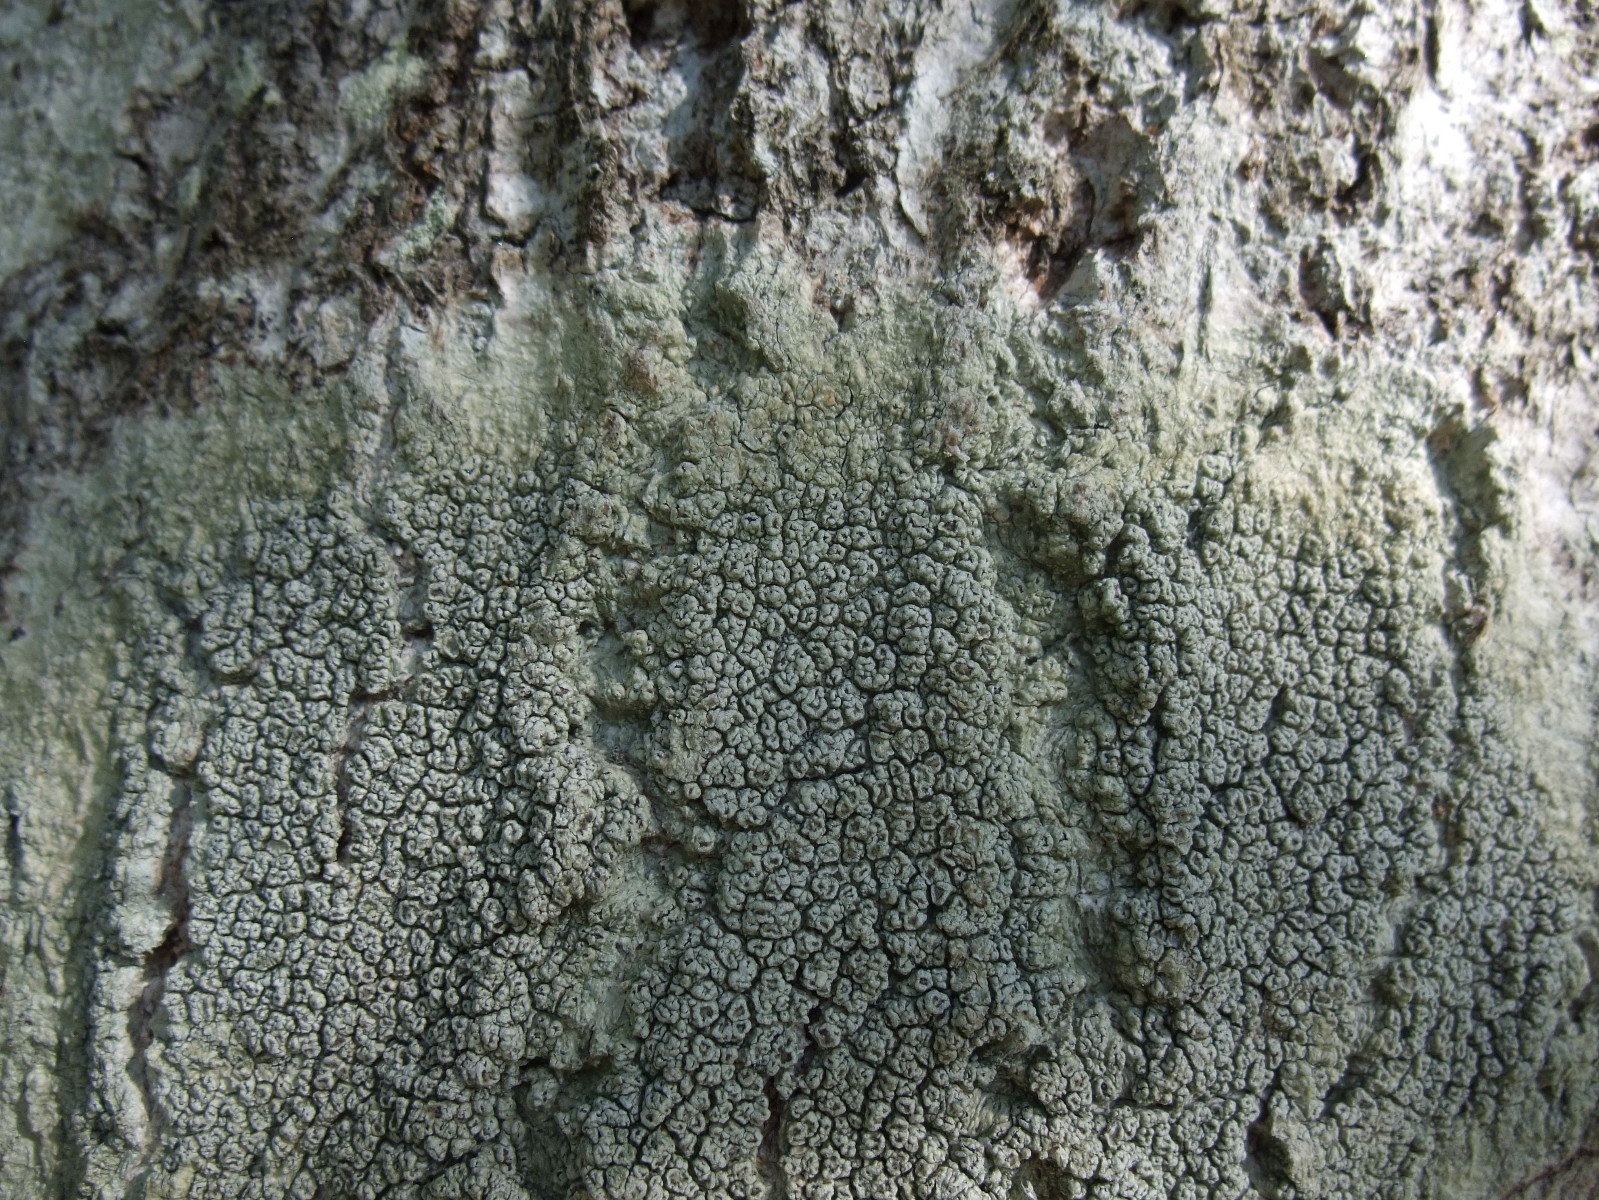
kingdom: Fungi
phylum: Ascomycota
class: Lecanoromycetes
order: Pertusariales
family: Pertusariaceae
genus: Pertusaria
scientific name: Pertusaria hymenea
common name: åben prikvortelav
